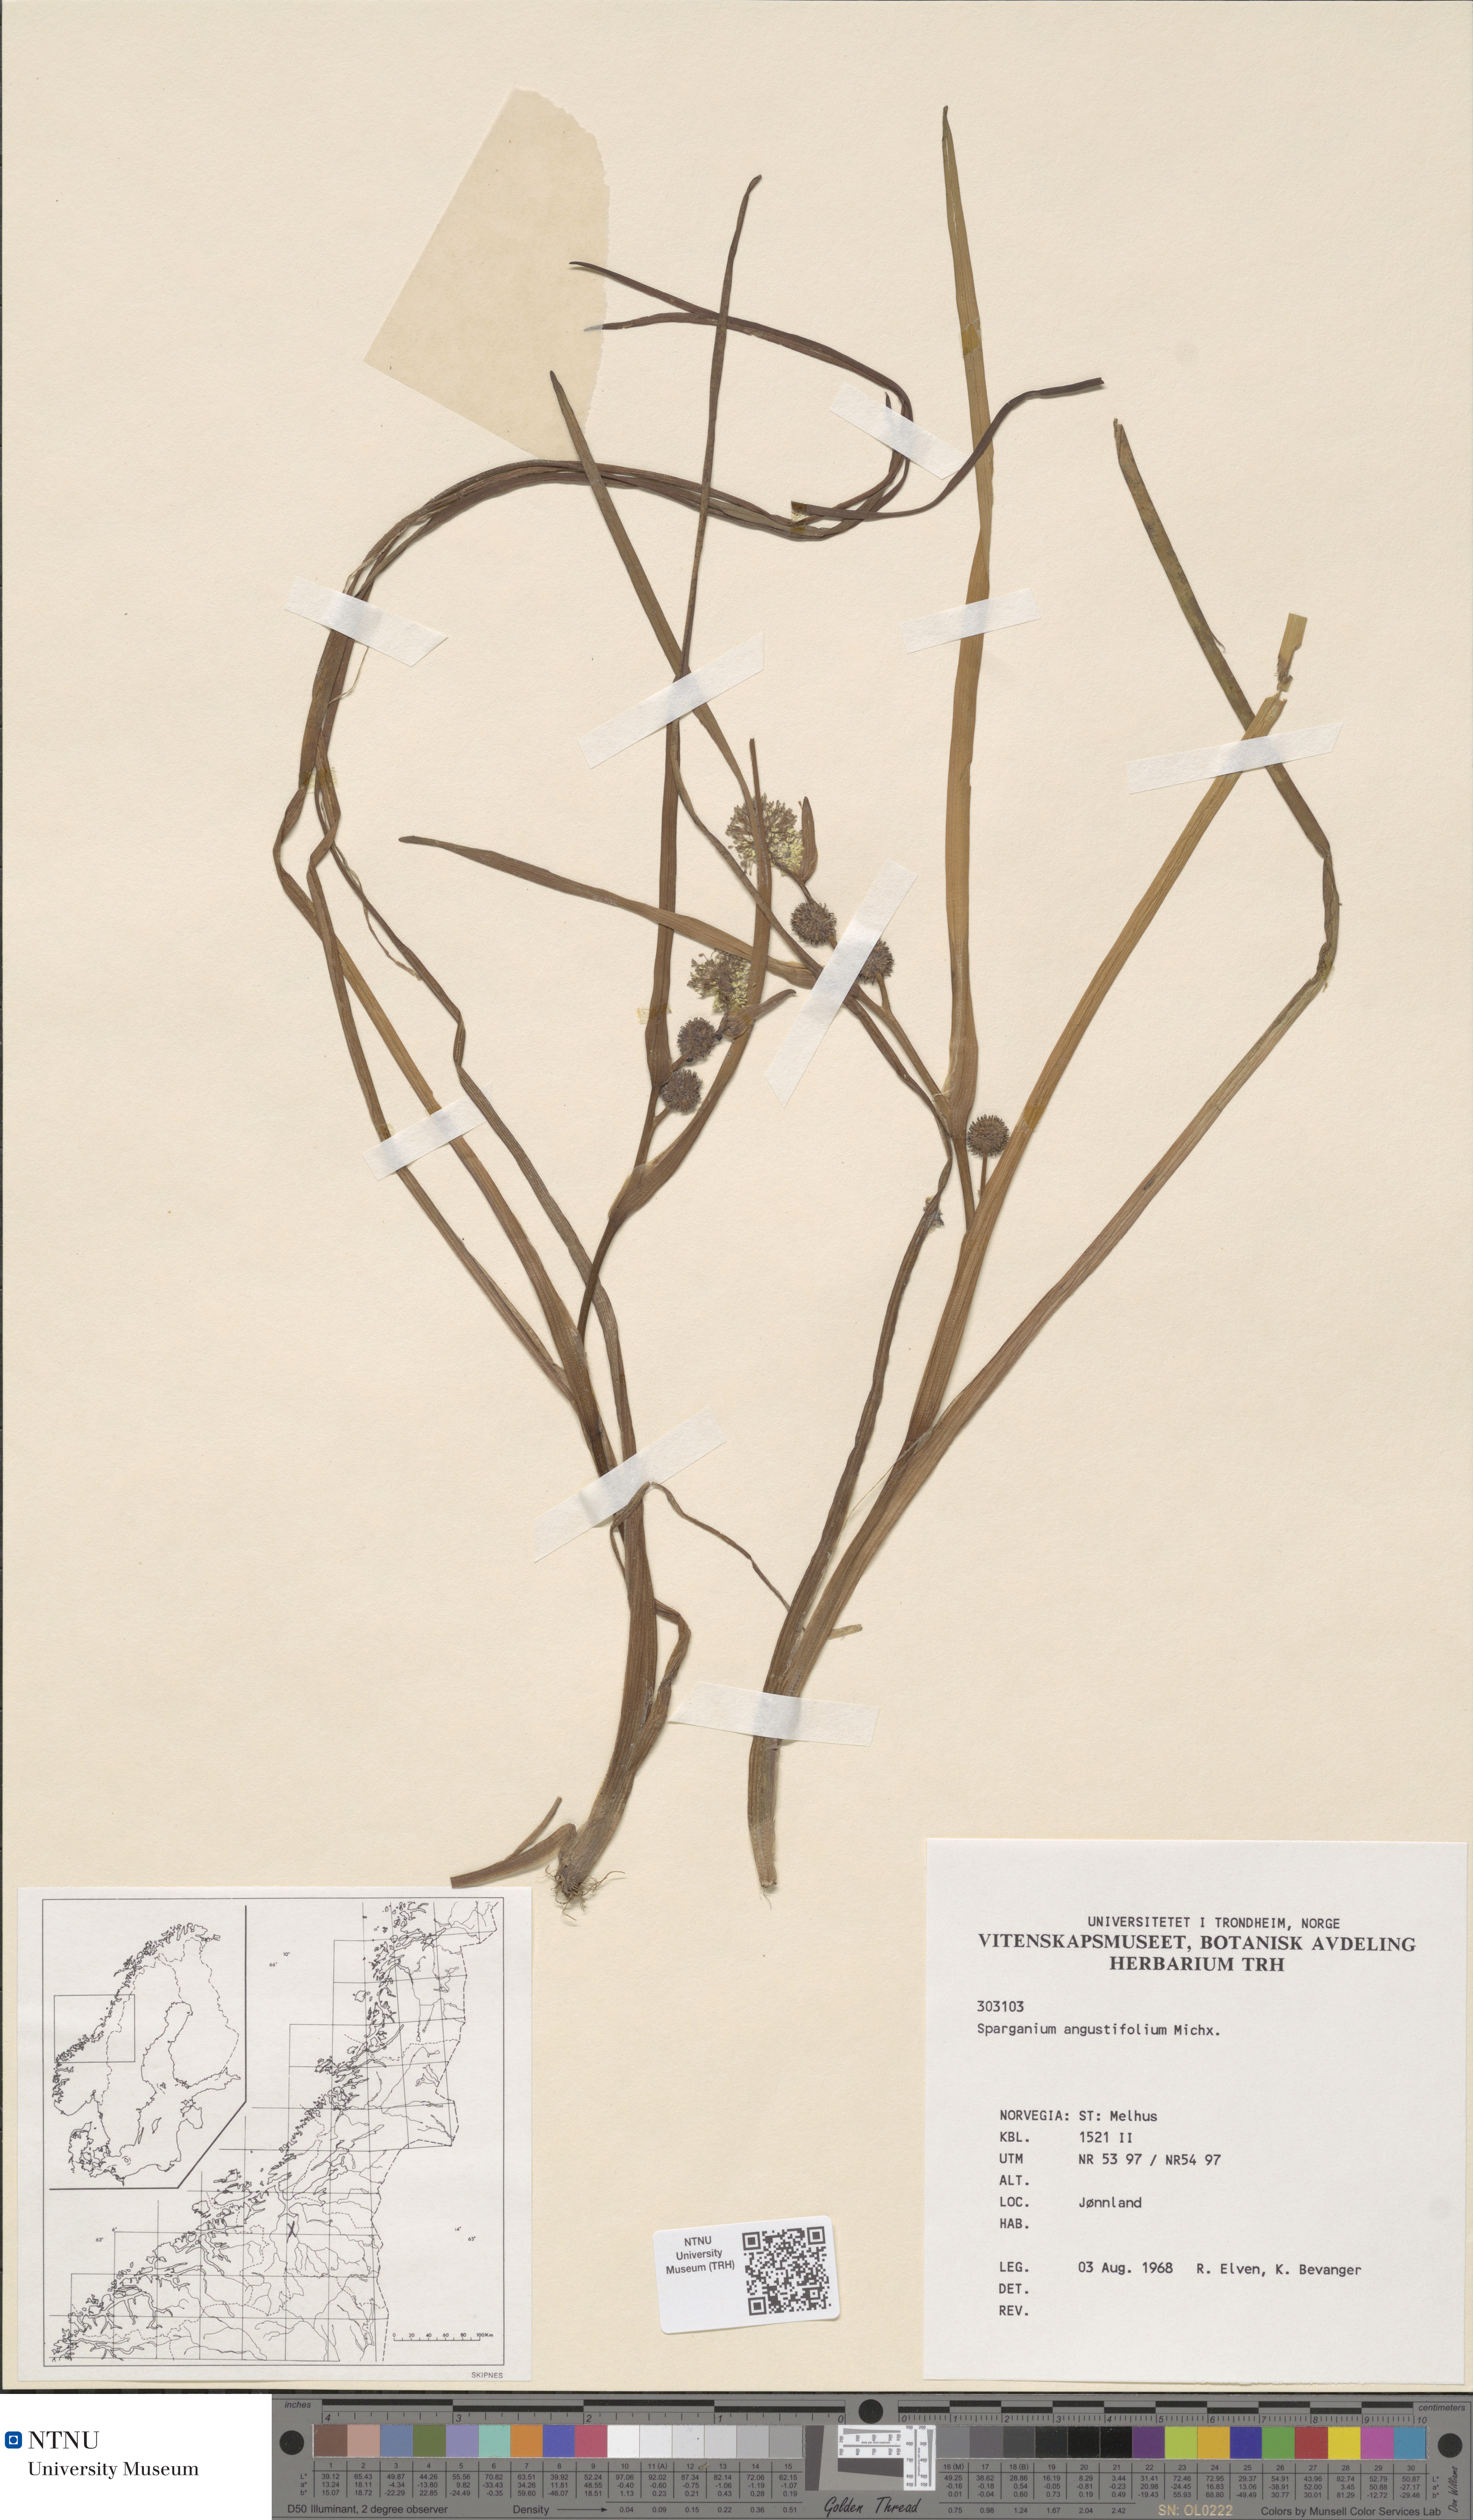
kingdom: Plantae
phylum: Tracheophyta
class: Liliopsida
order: Poales
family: Typhaceae
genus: Sparganium
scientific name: Sparganium angustifolium
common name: Floating bur-reed
